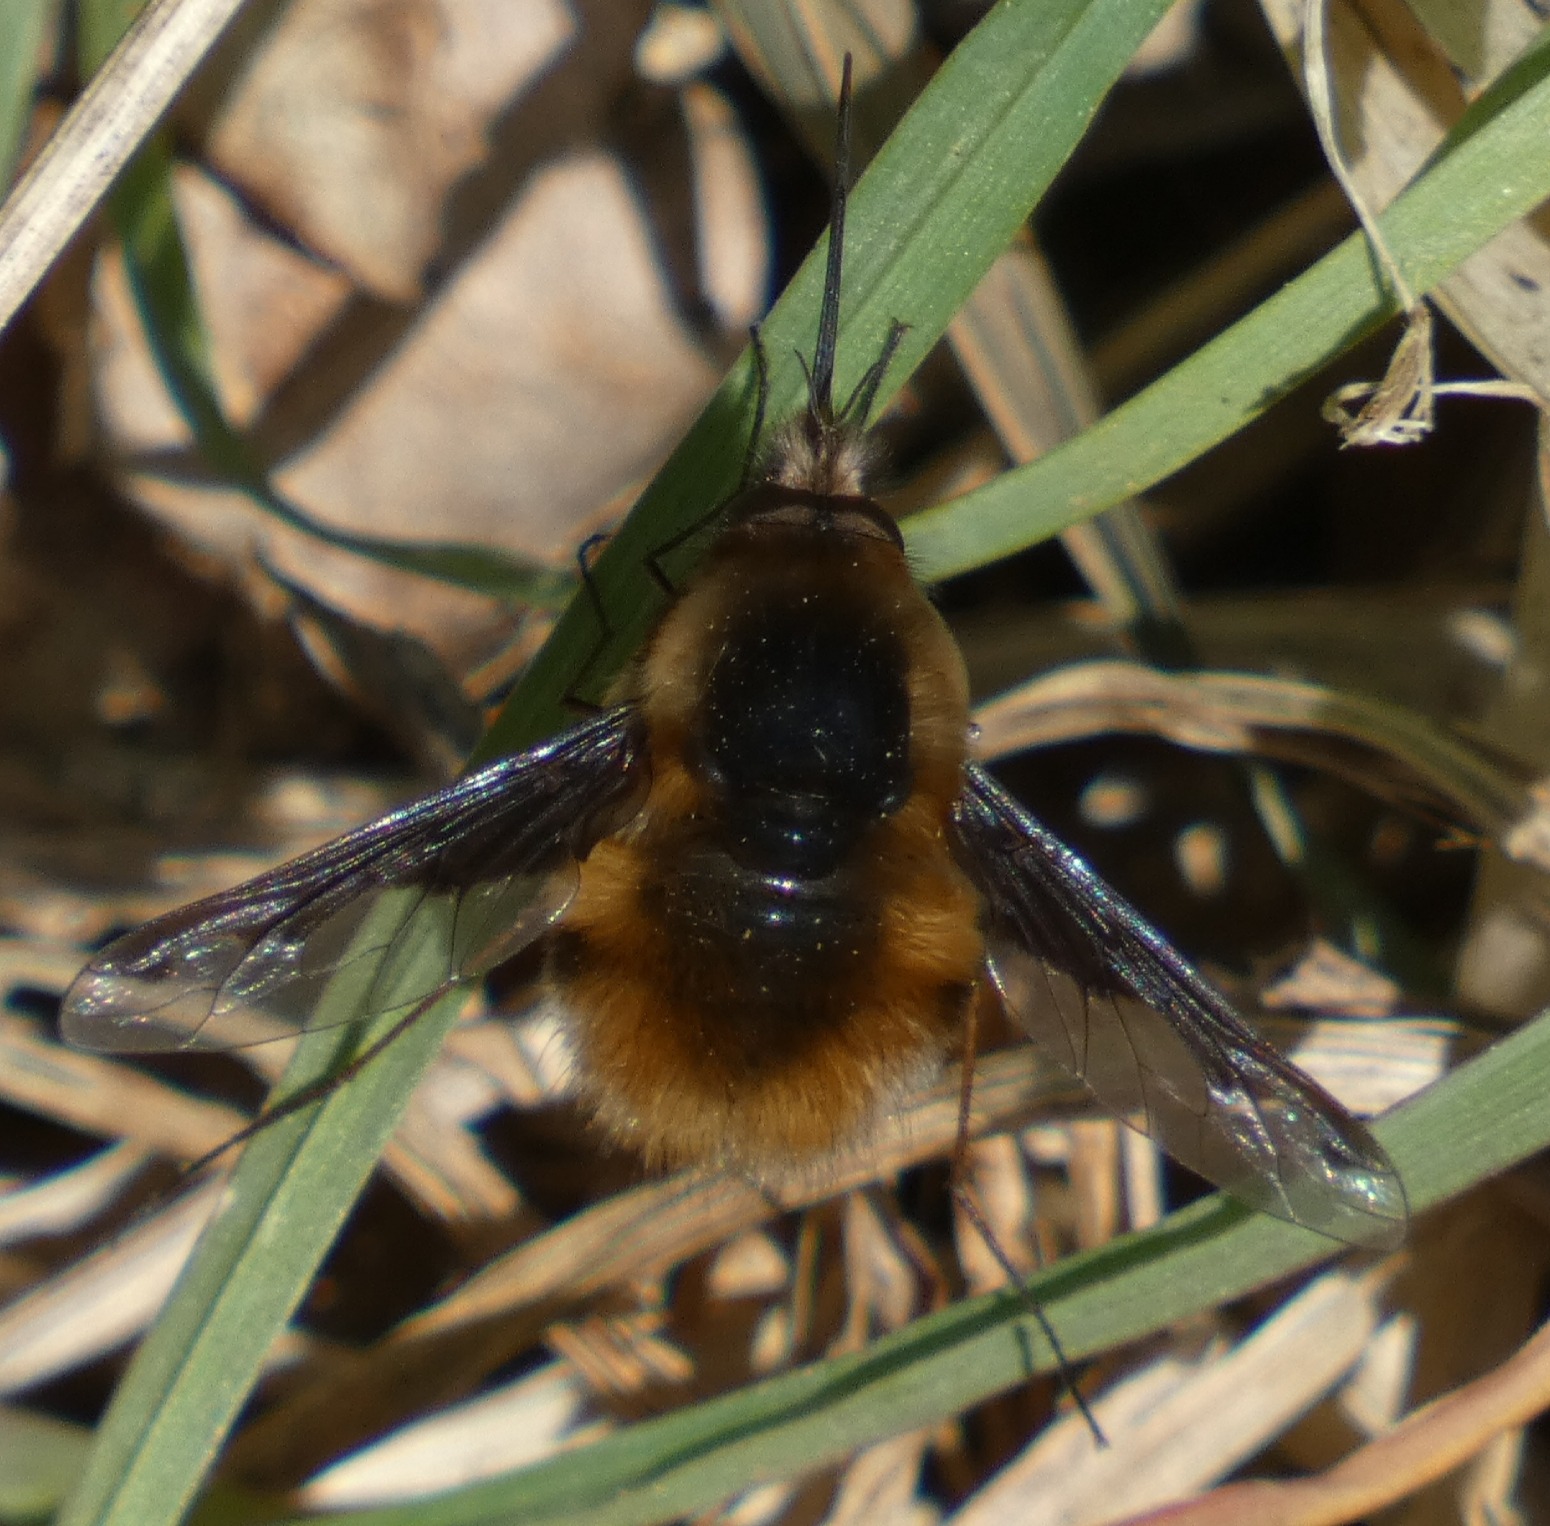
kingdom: Animalia
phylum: Arthropoda
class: Insecta
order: Diptera
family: Bombyliidae
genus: Bombylius
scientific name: Bombylius major
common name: Stor humleflue
